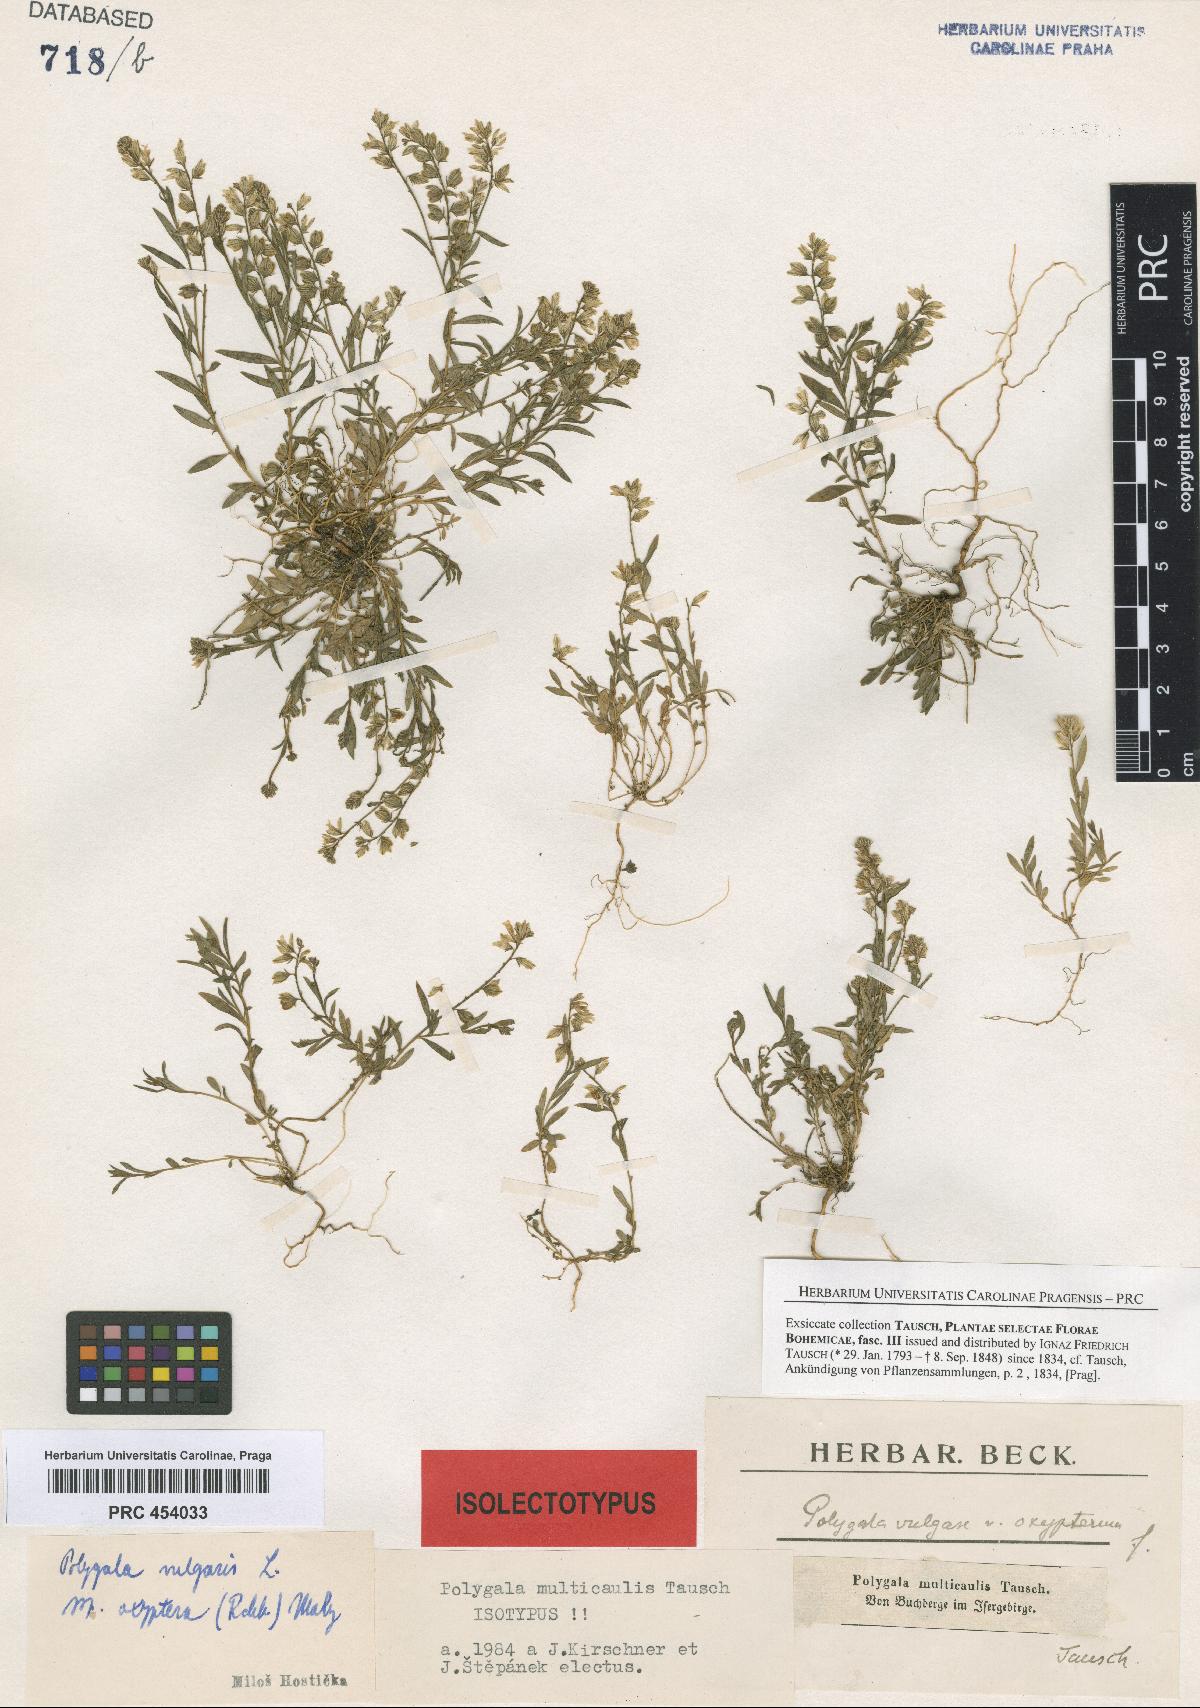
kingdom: Plantae
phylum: Tracheophyta
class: Magnoliopsida
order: Fabales
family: Polygalaceae
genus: Polygala
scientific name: Polygala vulgaris
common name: Common milkwort
